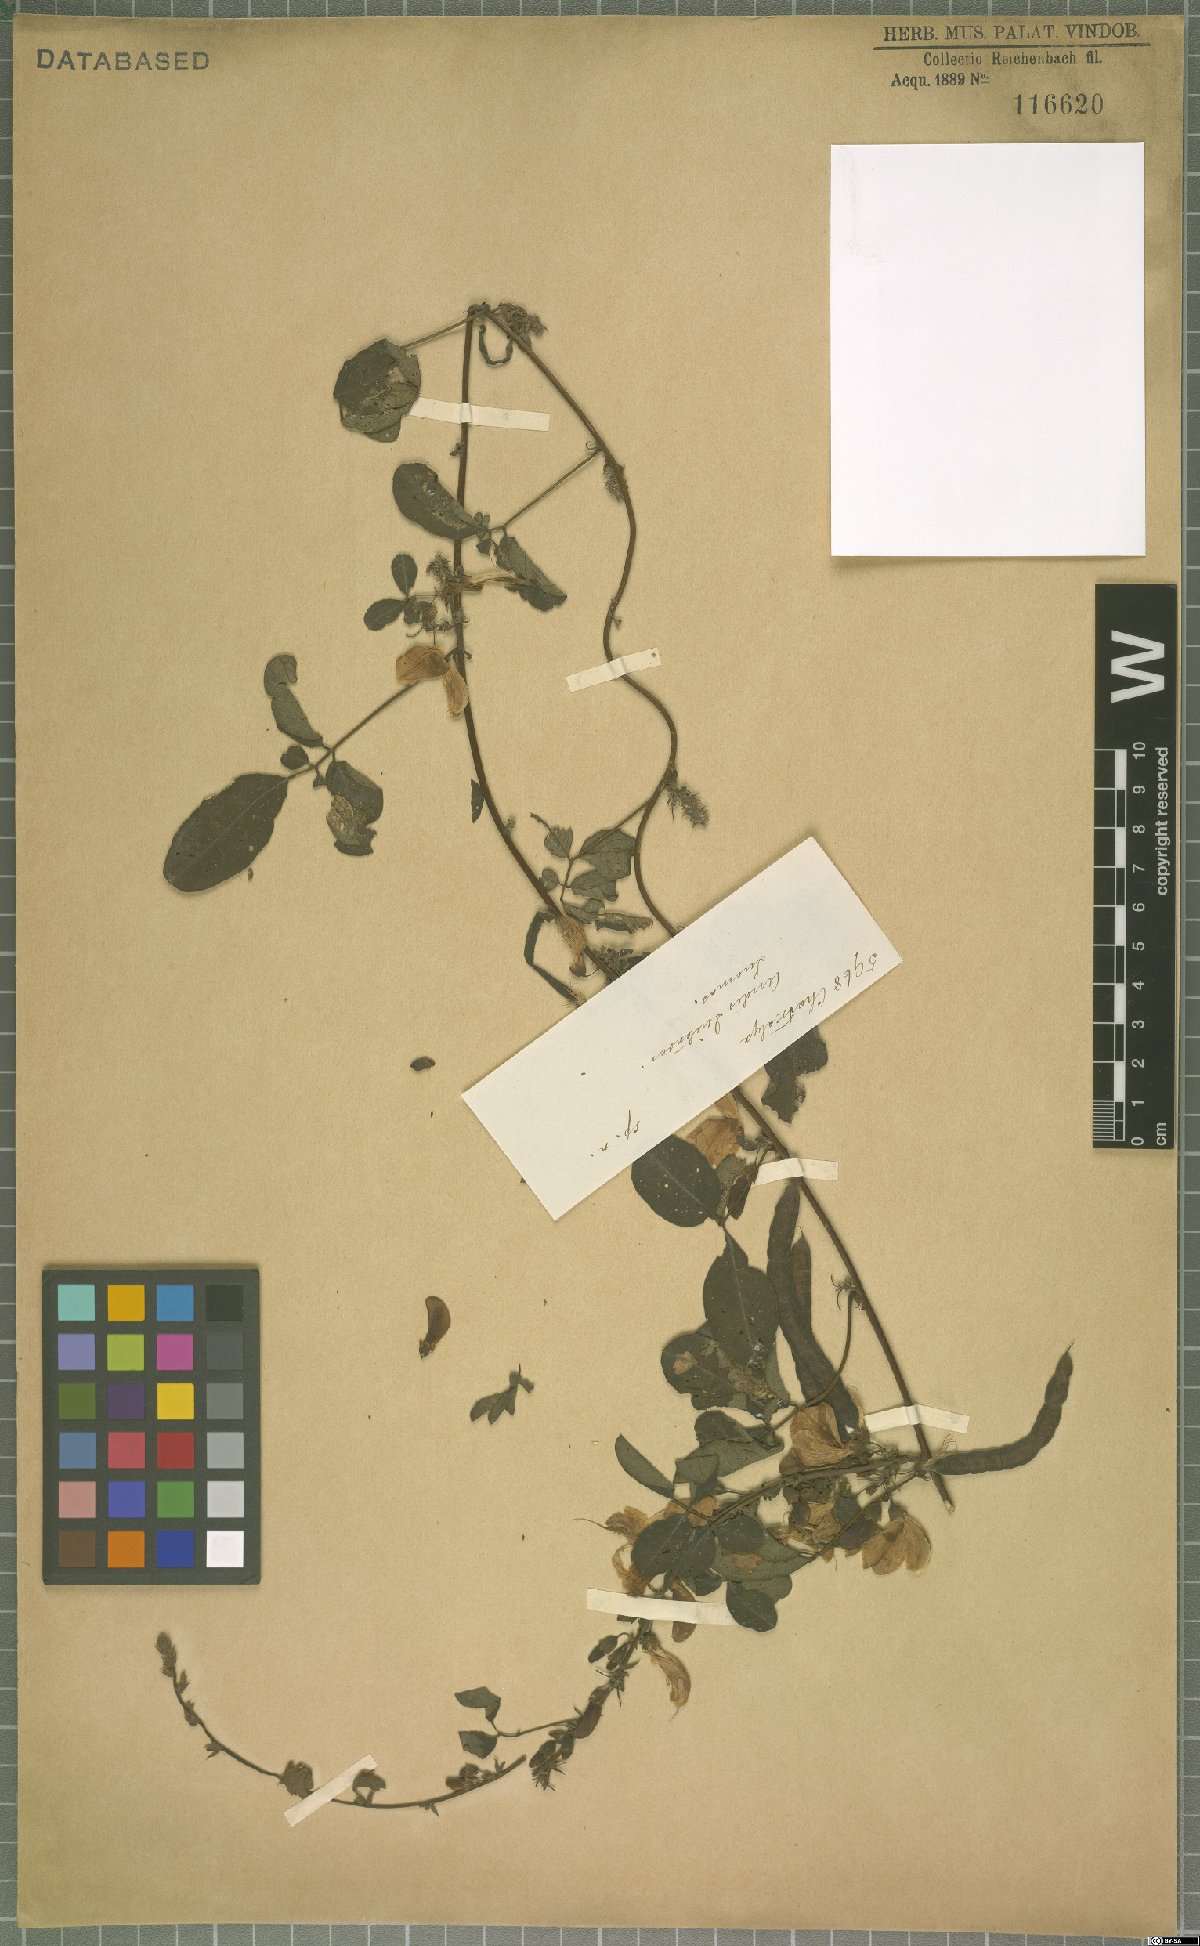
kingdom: Plantae
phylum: Tracheophyta
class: Magnoliopsida
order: Fabales
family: Fabaceae
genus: Nissolia
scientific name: Nissolia
